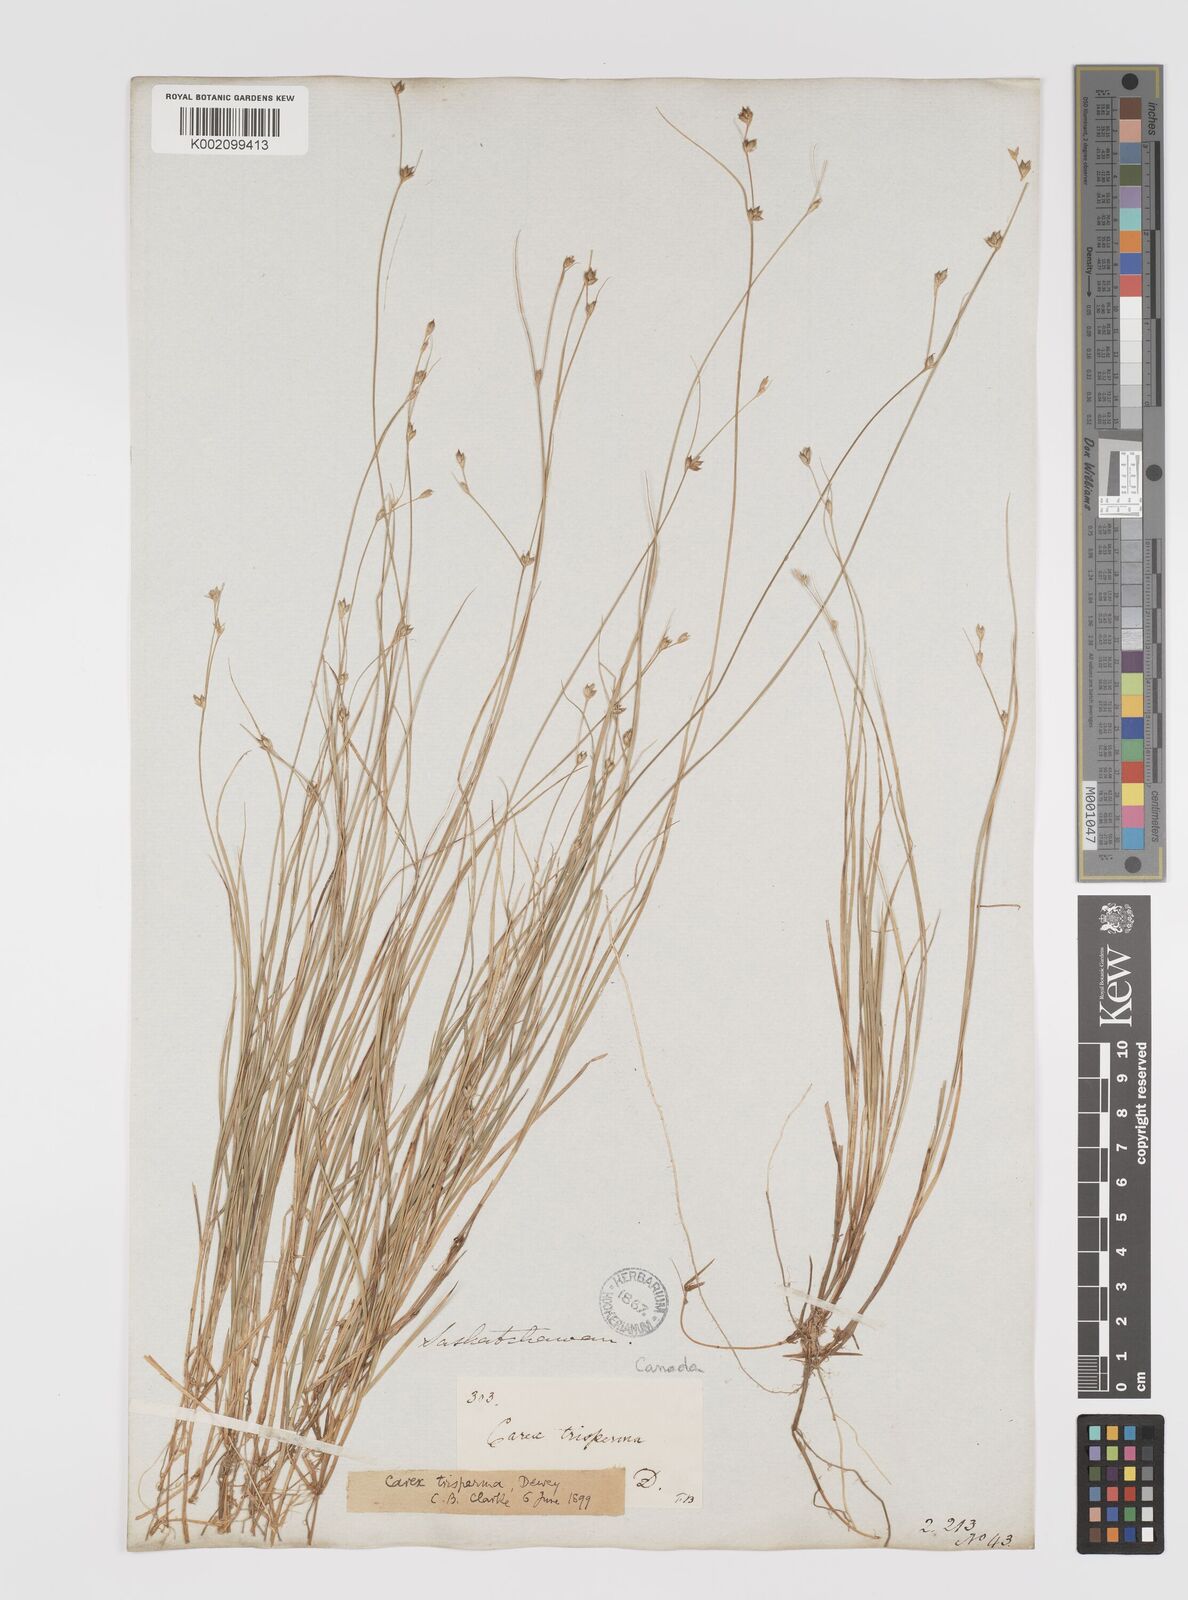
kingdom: Plantae
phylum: Tracheophyta
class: Liliopsida
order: Poales
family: Cyperaceae
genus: Carex
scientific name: Carex trisperma
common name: Three-seeded sedge
